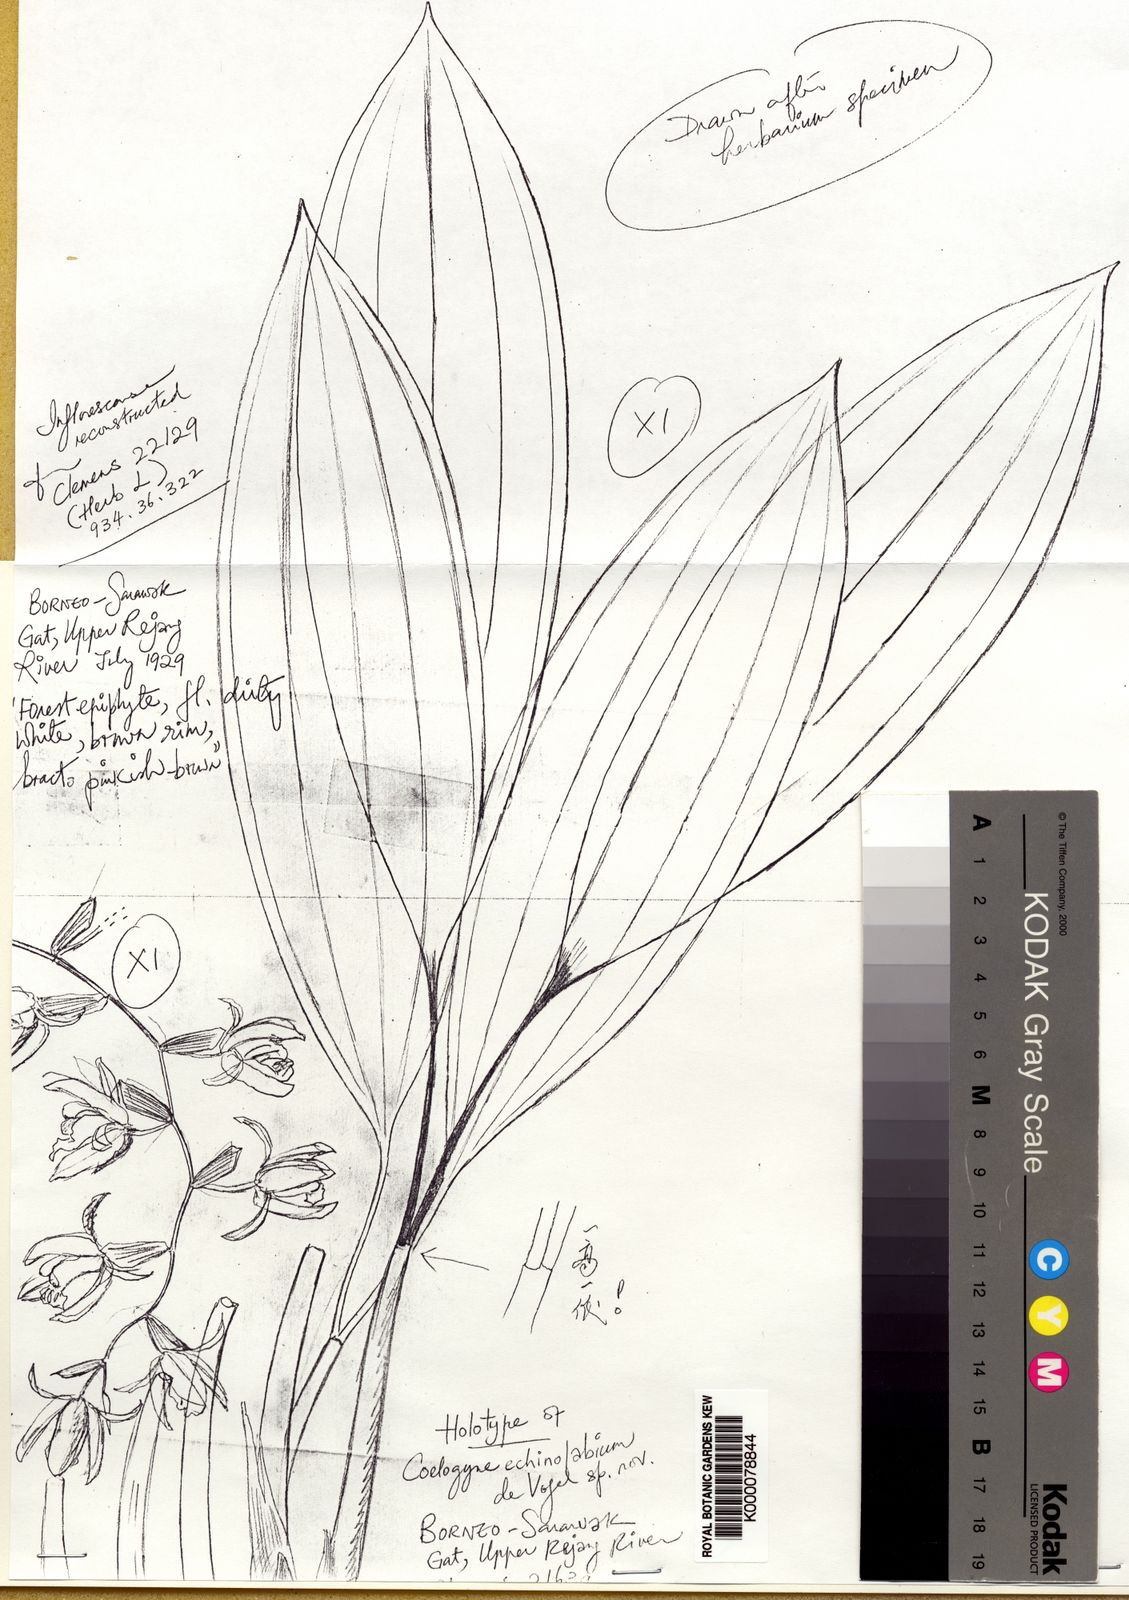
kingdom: Plantae
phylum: Tracheophyta
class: Liliopsida
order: Asparagales
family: Orchidaceae
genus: Coelogyne
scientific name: Coelogyne echinolabium
